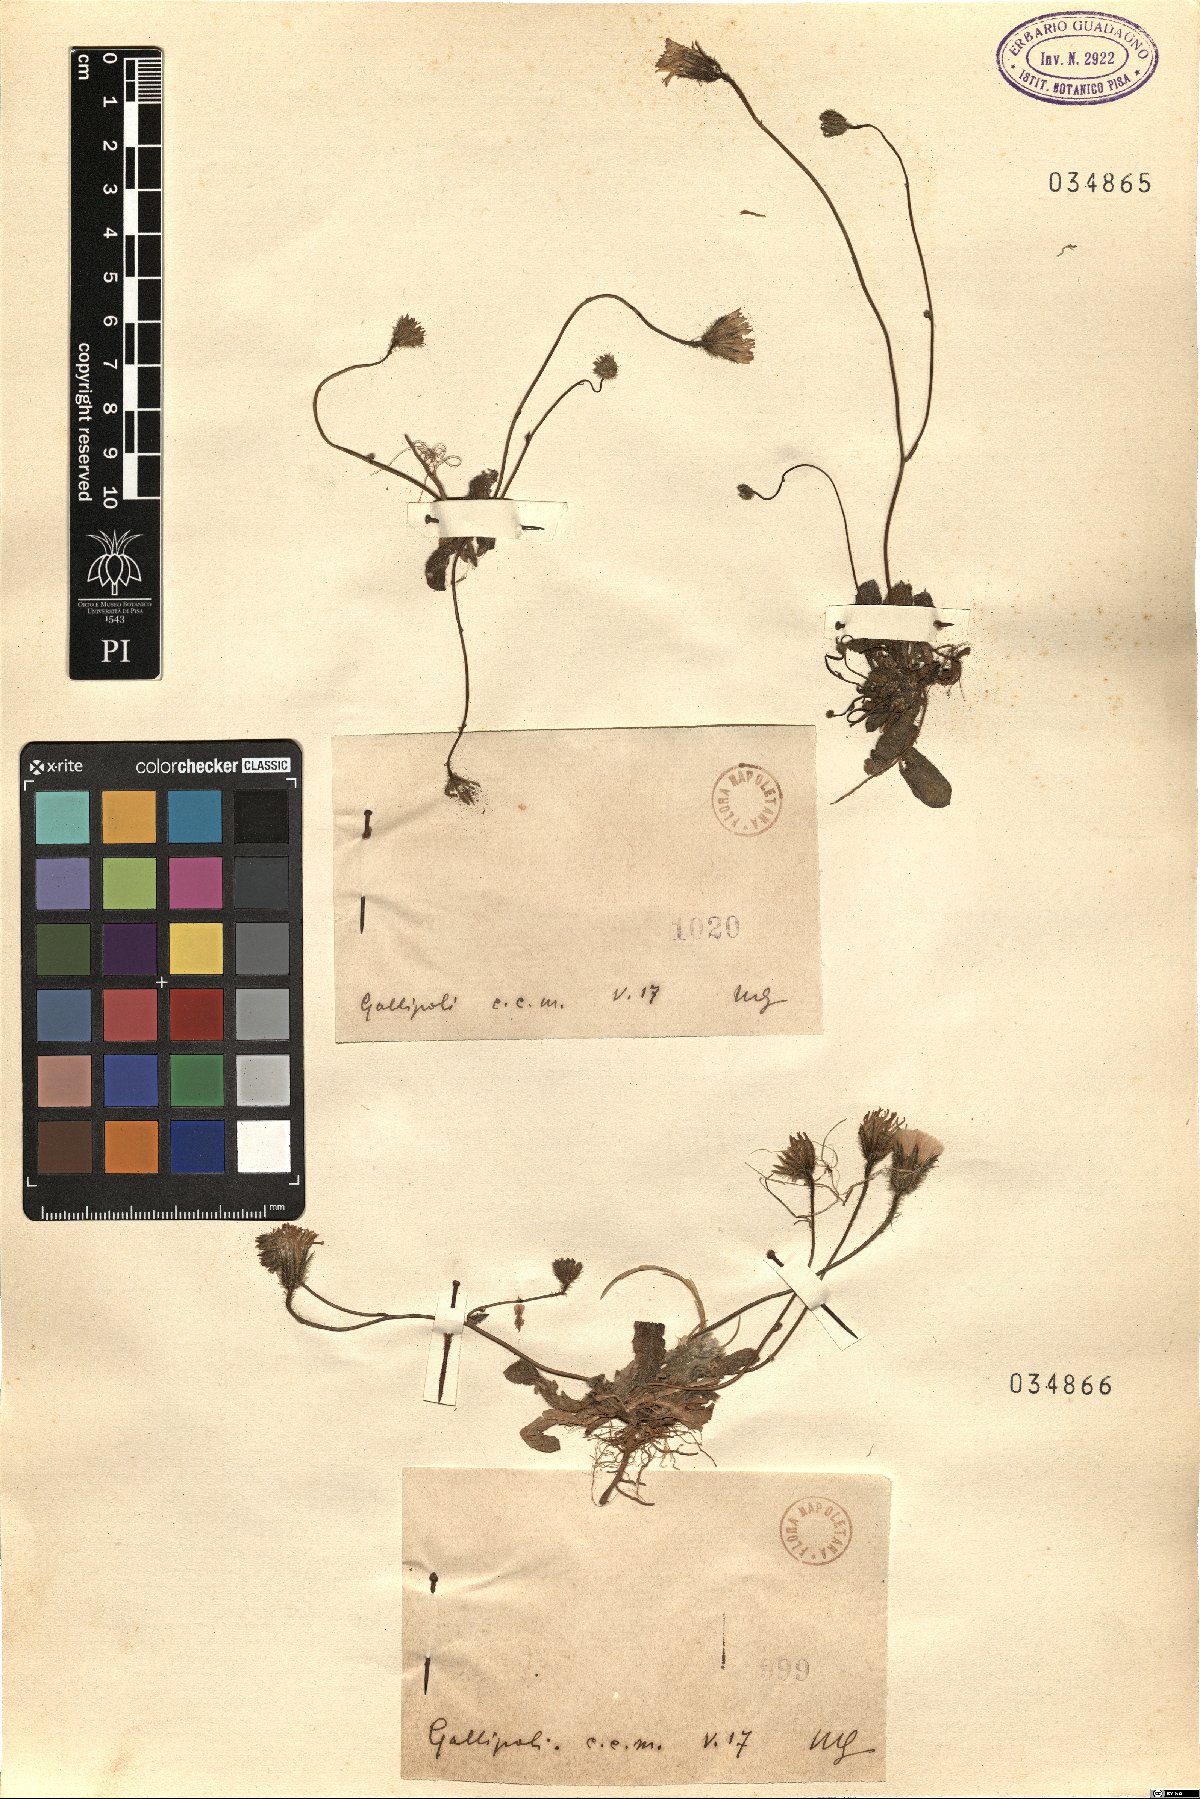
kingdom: Plantae
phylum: Tracheophyta
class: Magnoliopsida
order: Asterales
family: Asteraceae
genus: Hypochaeris
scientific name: Hypochaeris
